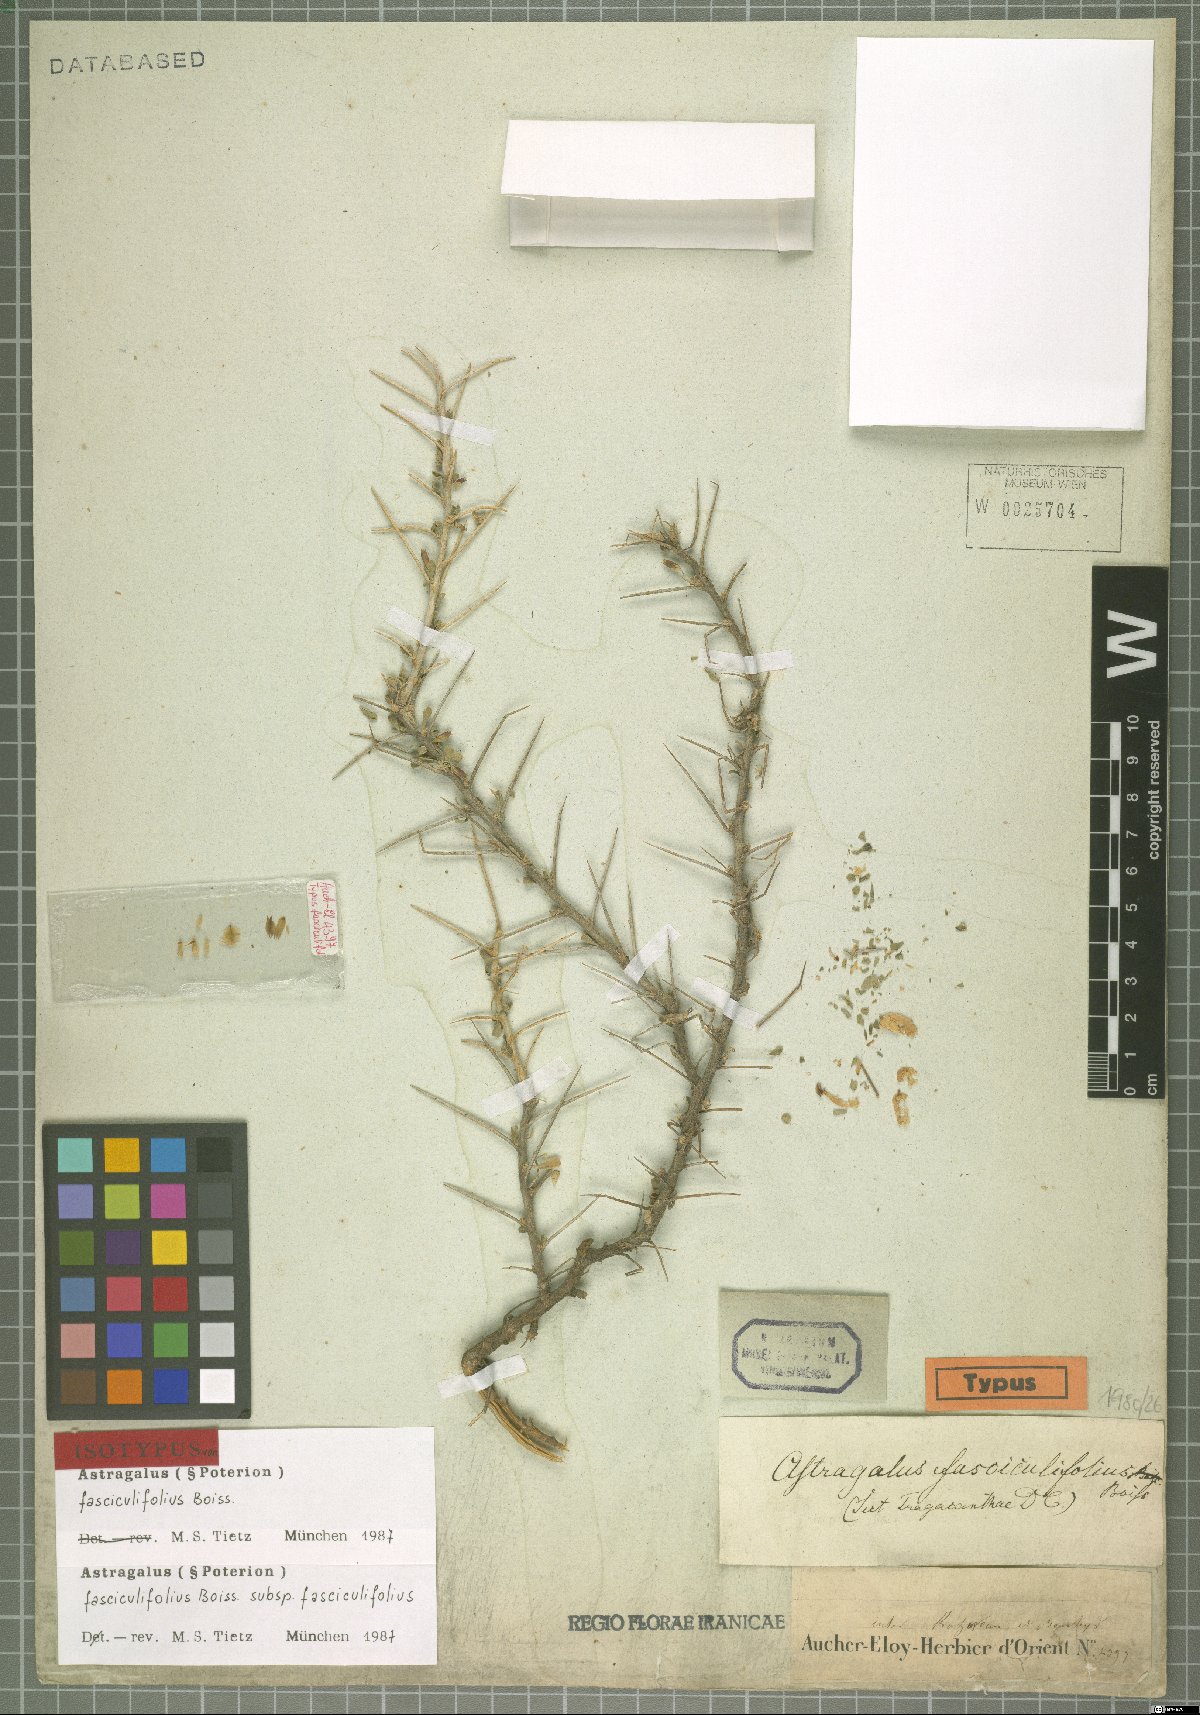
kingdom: Plantae
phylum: Tracheophyta
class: Magnoliopsida
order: Fabales
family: Fabaceae
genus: Astragalus
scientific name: Astragalus fasciculifolius
